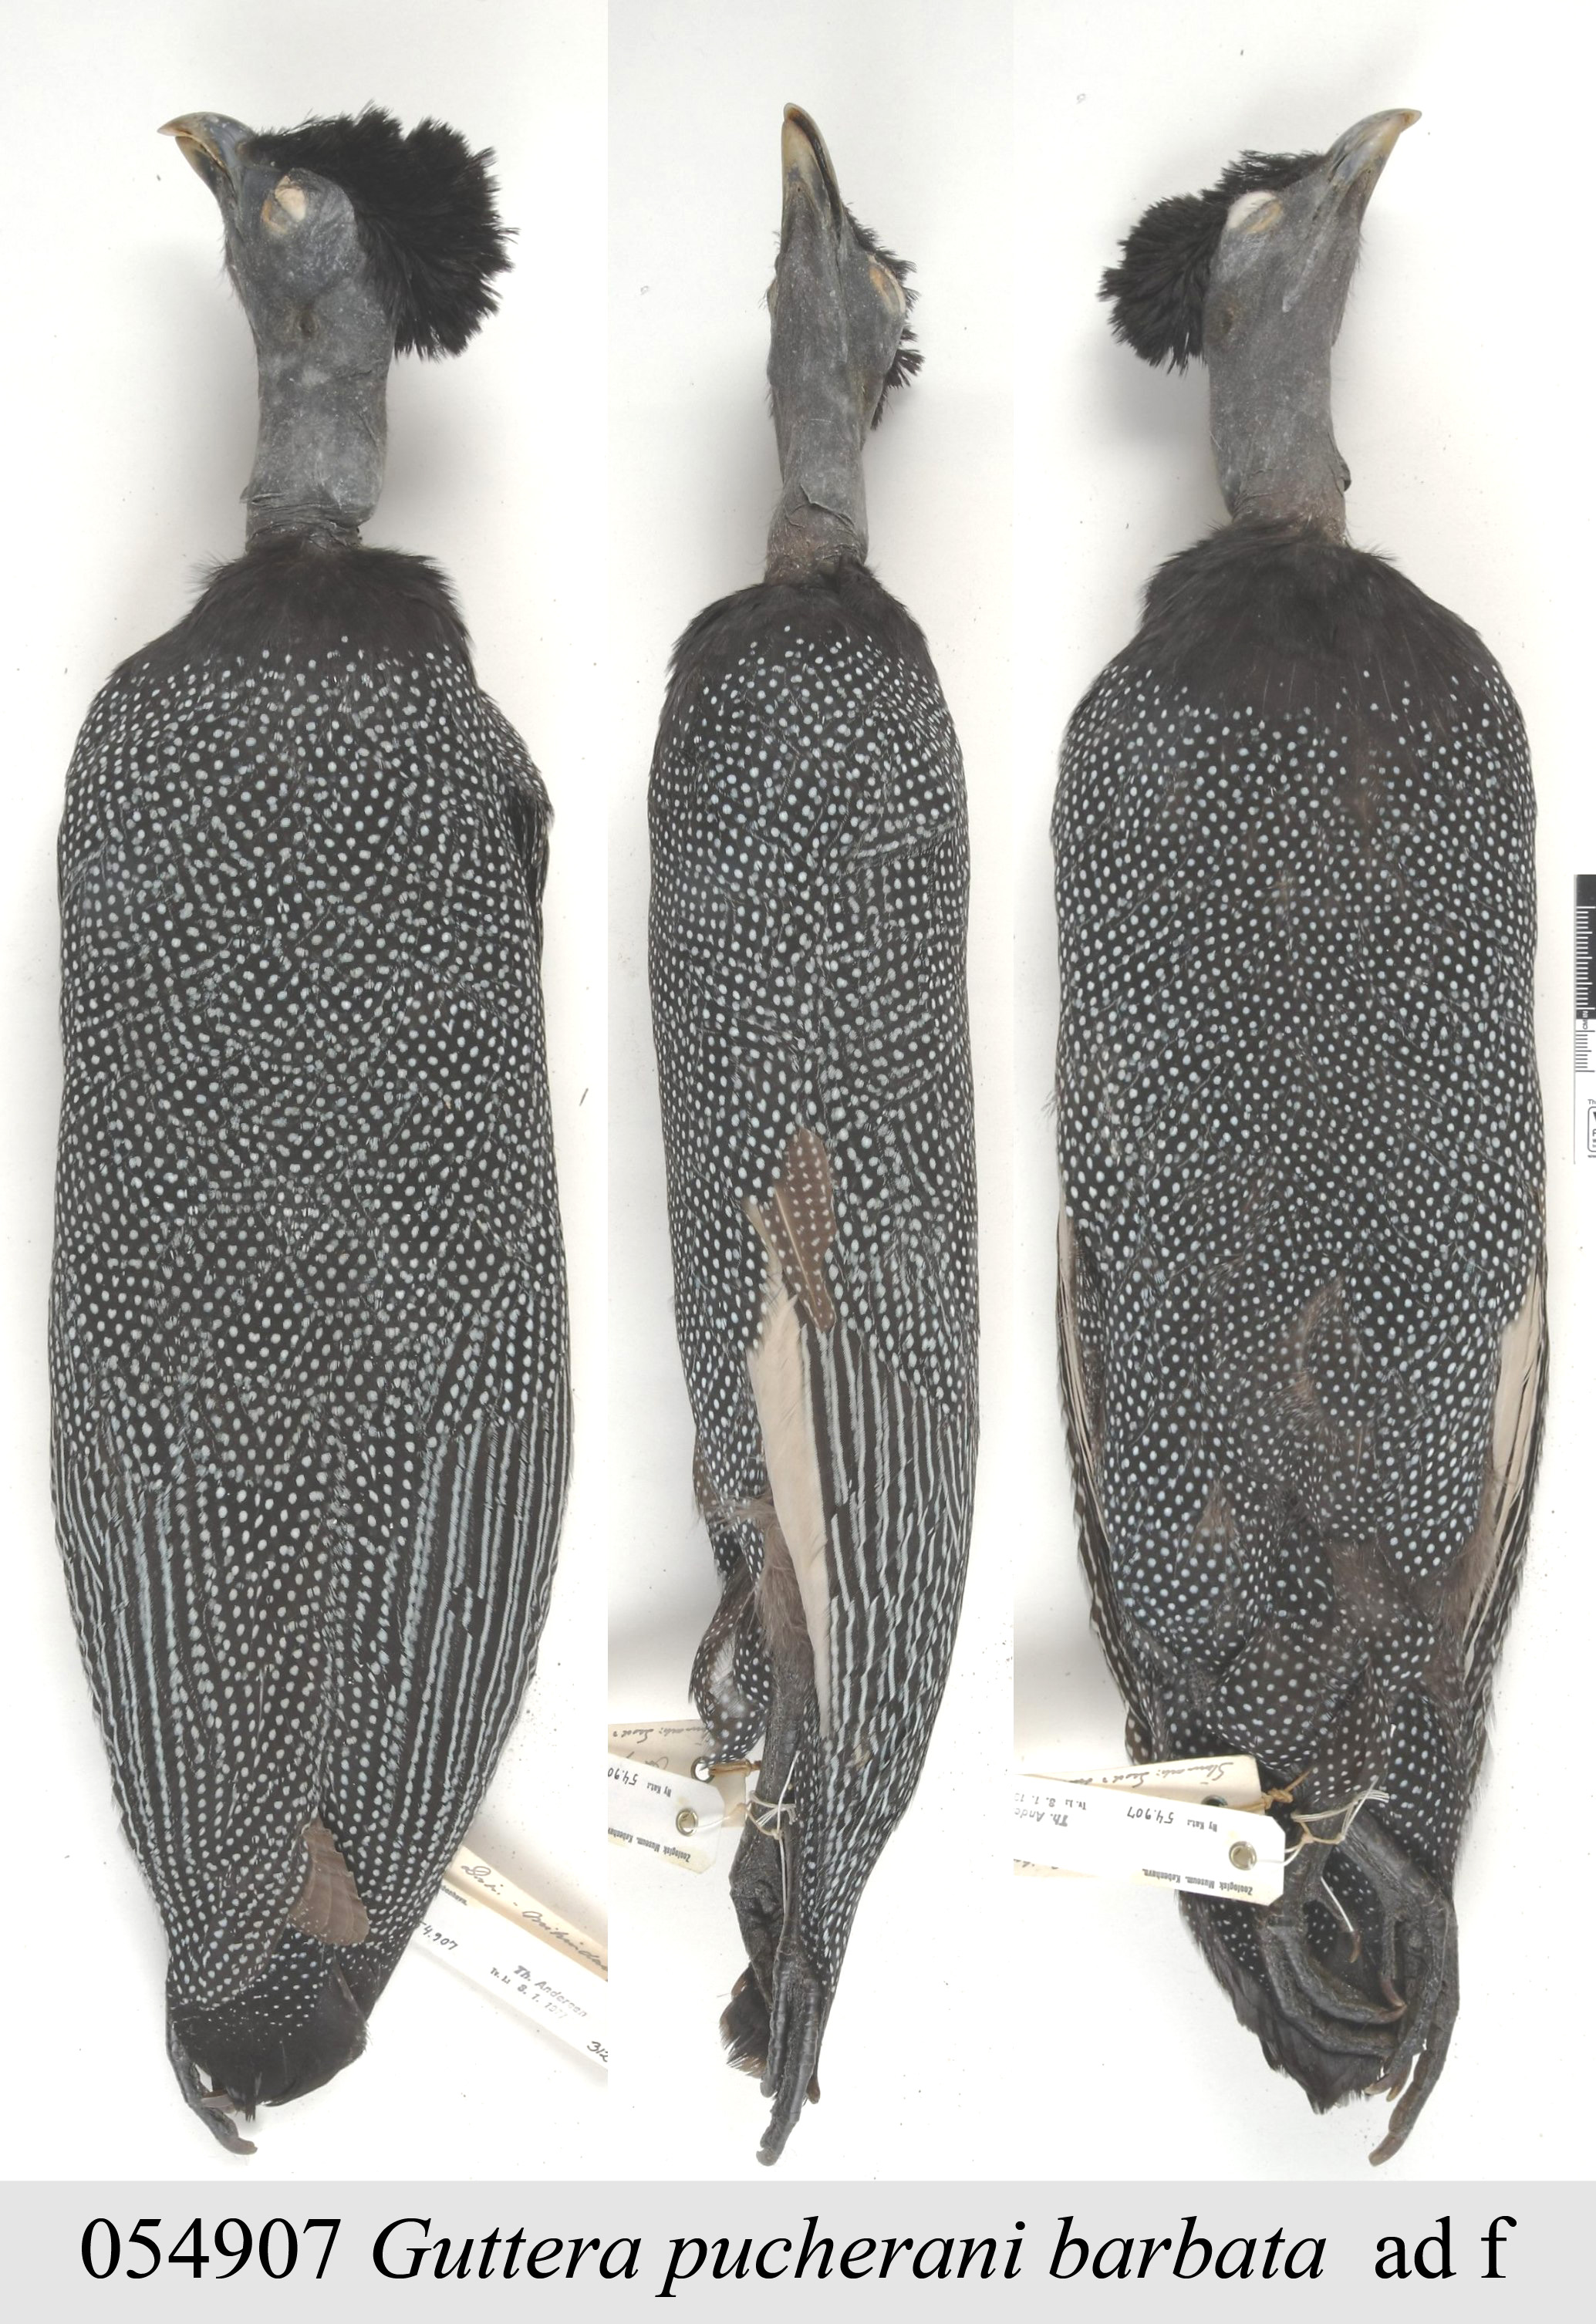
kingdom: Animalia
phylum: Chordata
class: Aves
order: Galliformes
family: Numididae
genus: Guttera
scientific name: Guttera pucherani
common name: Crested guineafowl
